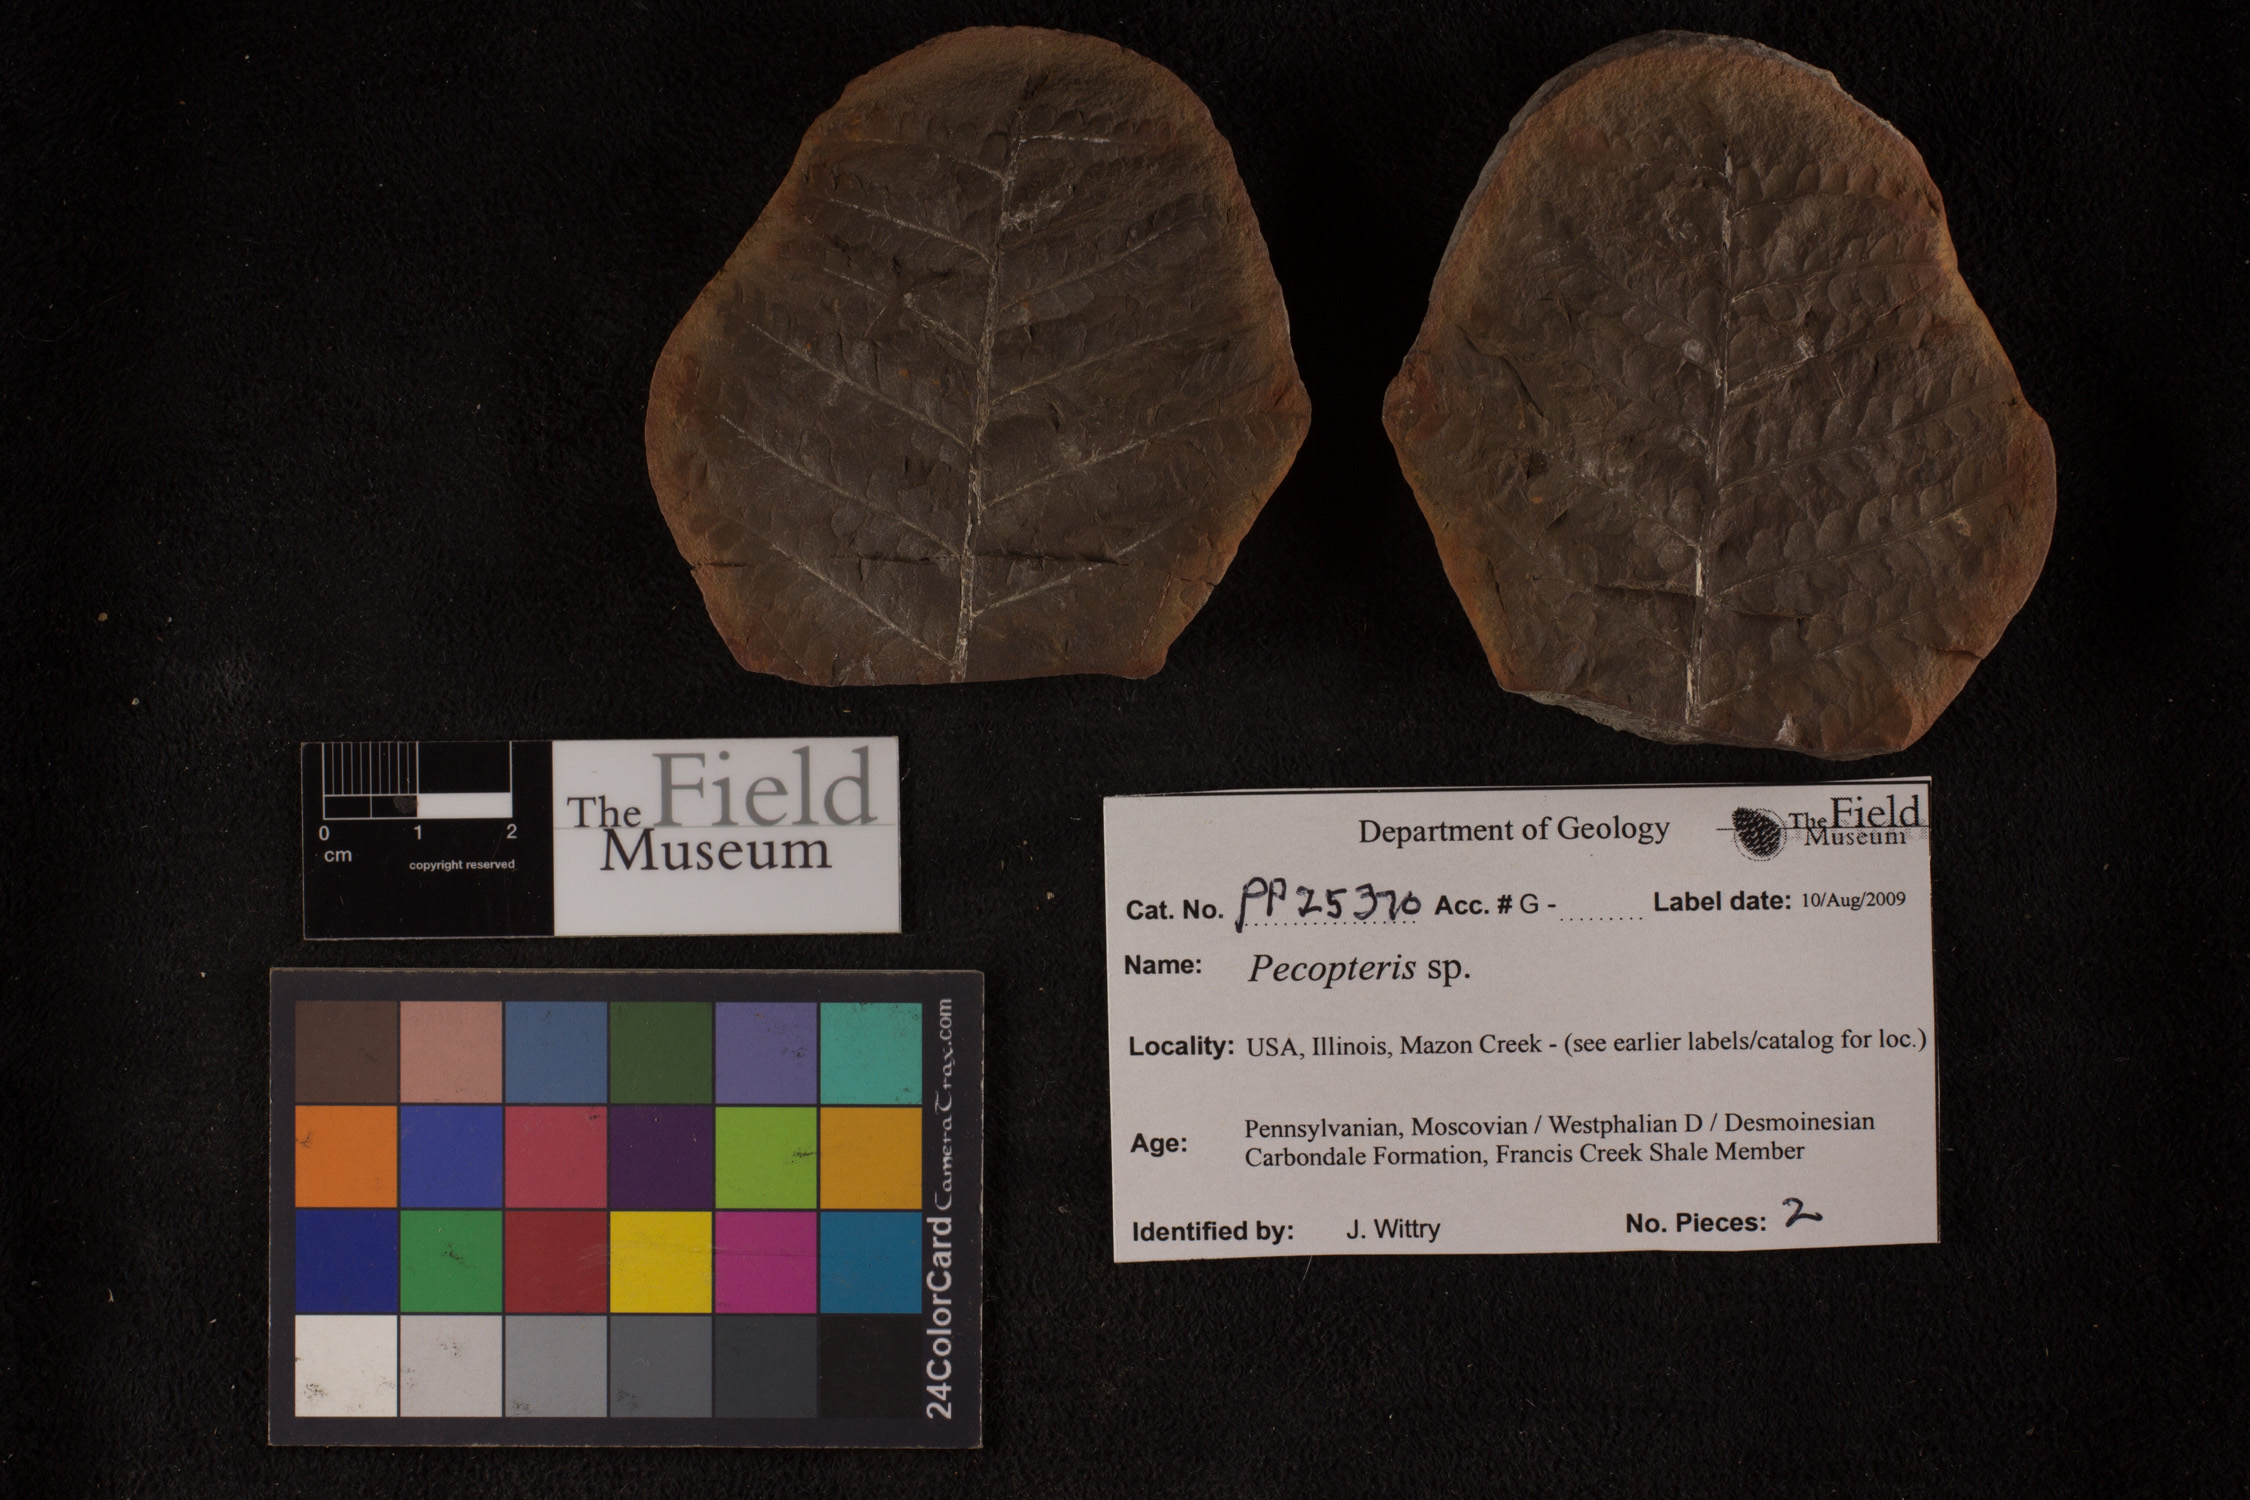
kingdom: Plantae
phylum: Tracheophyta
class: Polypodiopsida
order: Marattiales
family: Asterothecaceae
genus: Pecopteris
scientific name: Pecopteris
